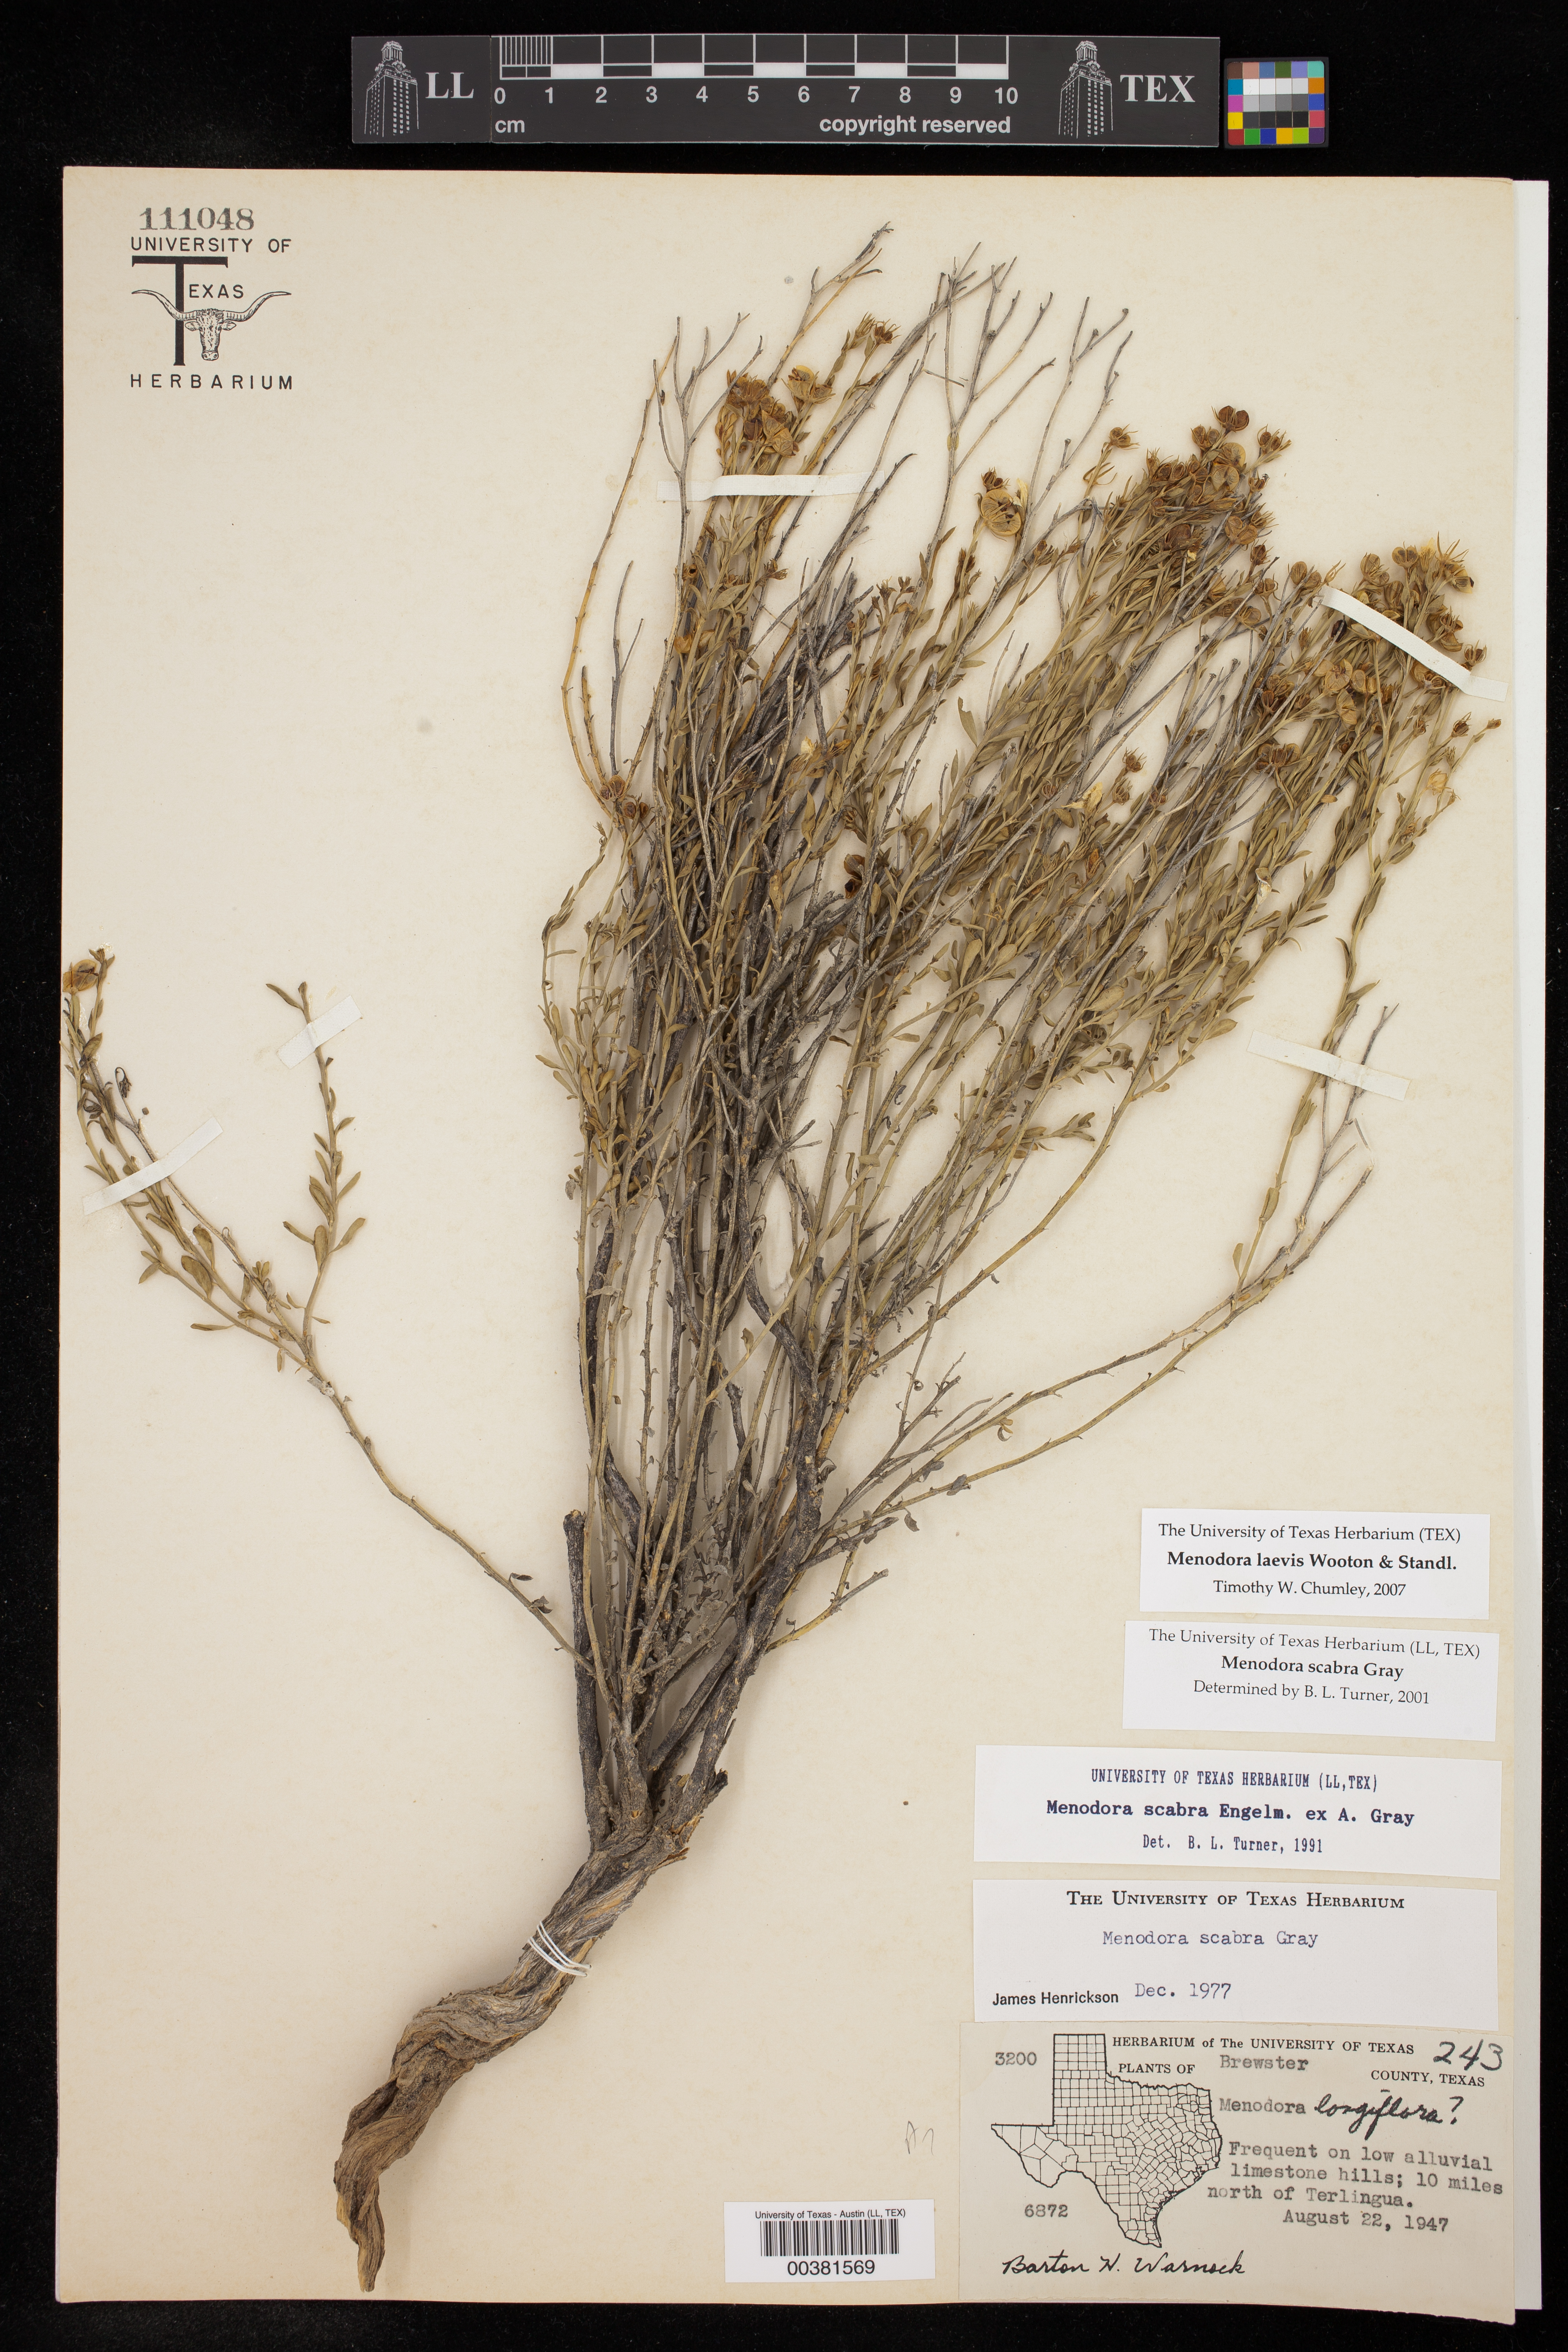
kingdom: Plantae
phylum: Tracheophyta
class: Magnoliopsida
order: Lamiales
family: Oleaceae
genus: Menodora
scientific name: Menodora scabra
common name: Rough menodora
